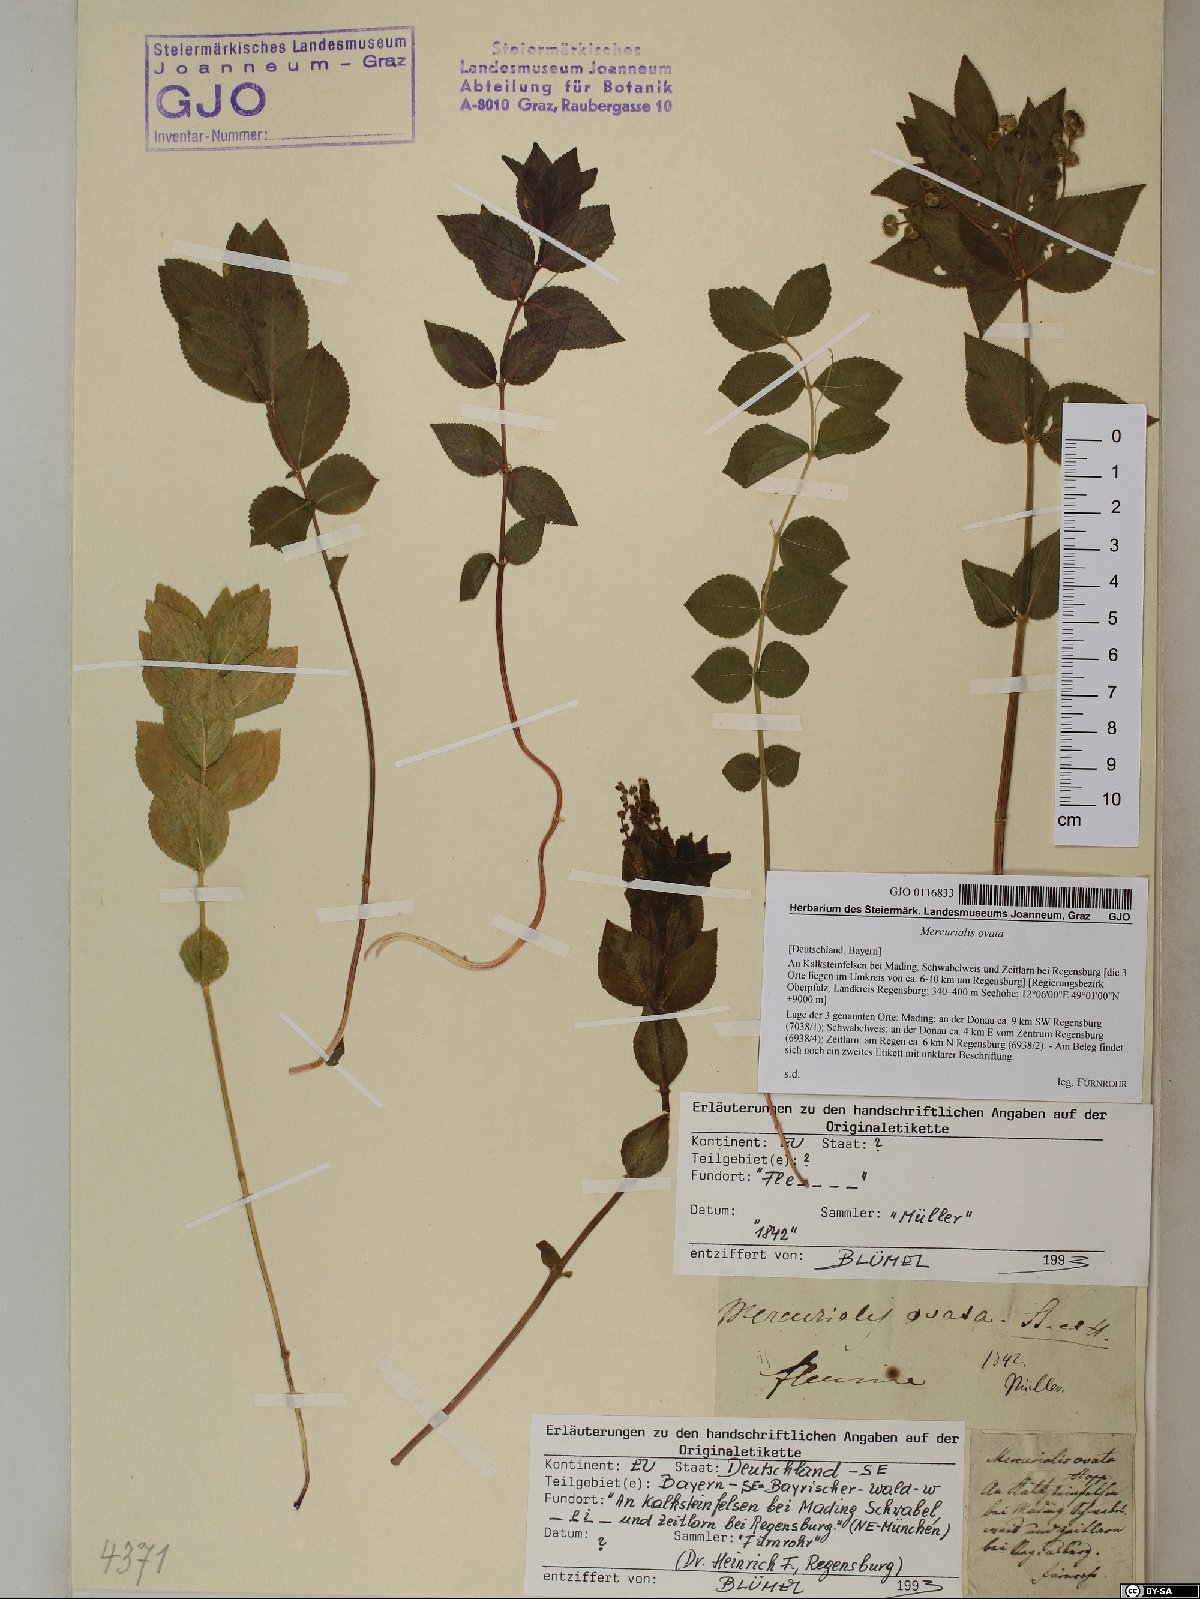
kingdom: Plantae
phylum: Tracheophyta
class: Magnoliopsida
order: Malpighiales
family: Euphorbiaceae
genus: Mercurialis
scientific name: Mercurialis ovata
